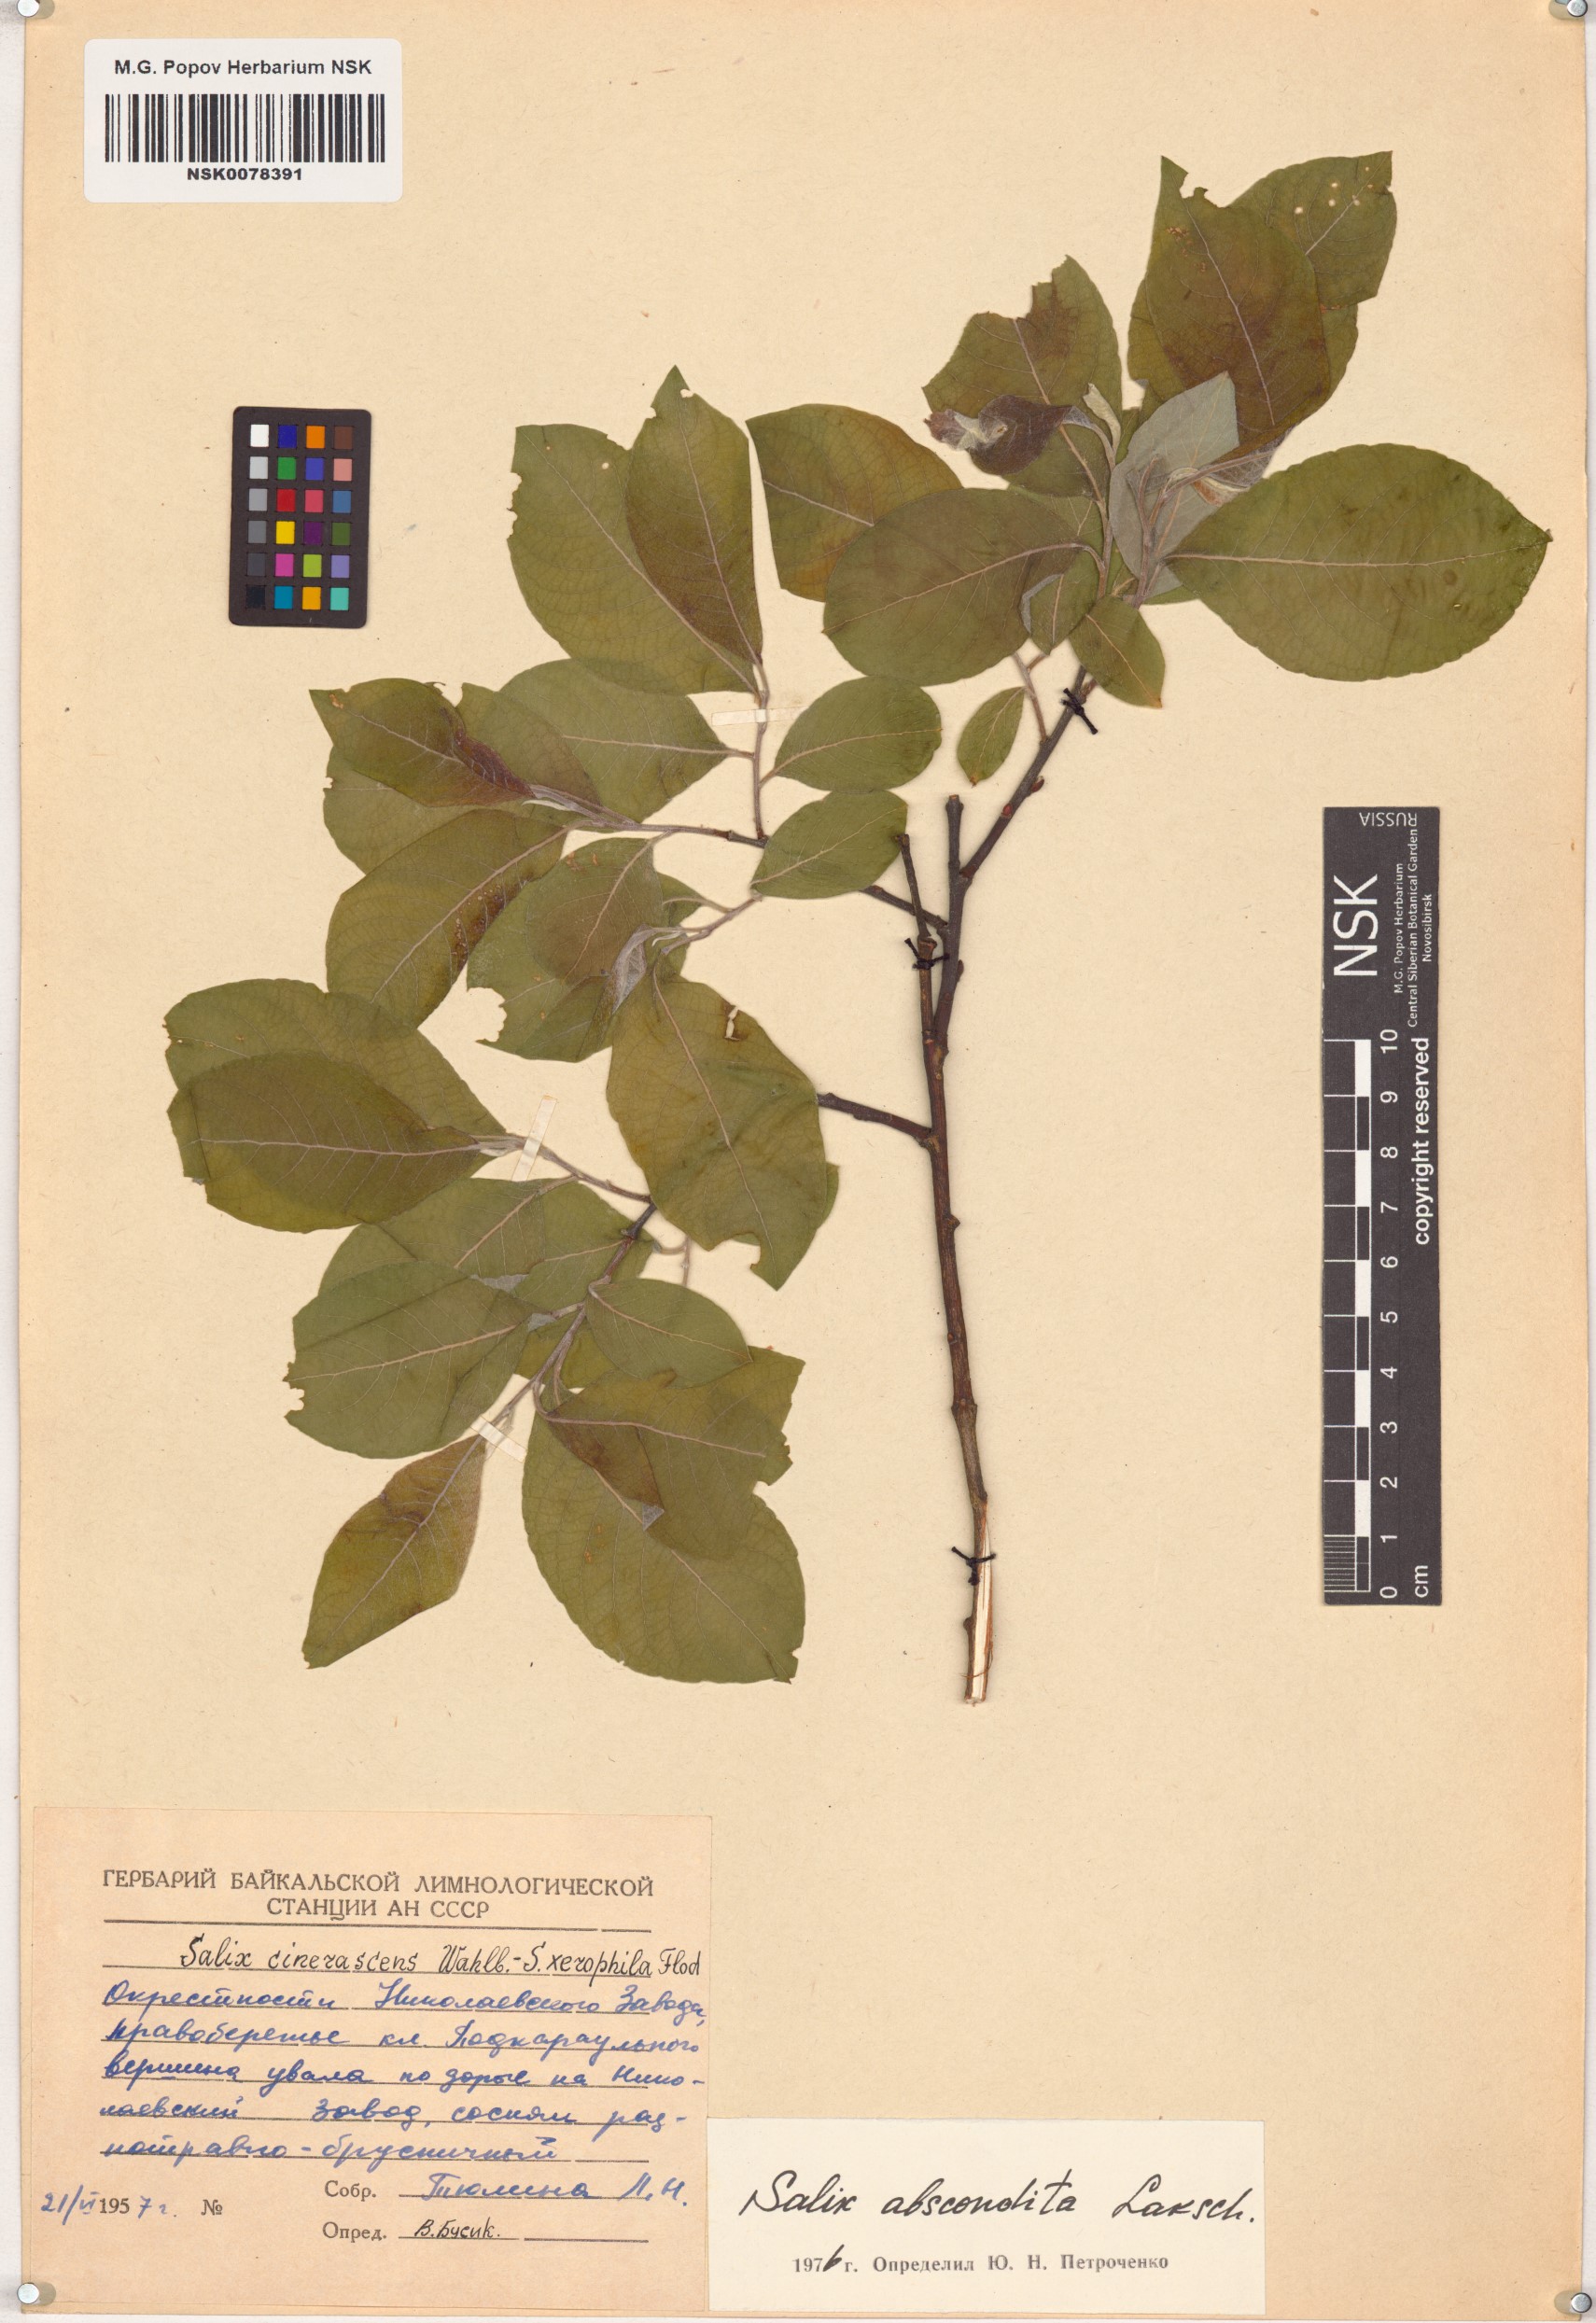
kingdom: Plantae
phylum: Tracheophyta
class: Magnoliopsida
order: Malpighiales
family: Salicaceae
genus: Salix
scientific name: Salix abscondita
